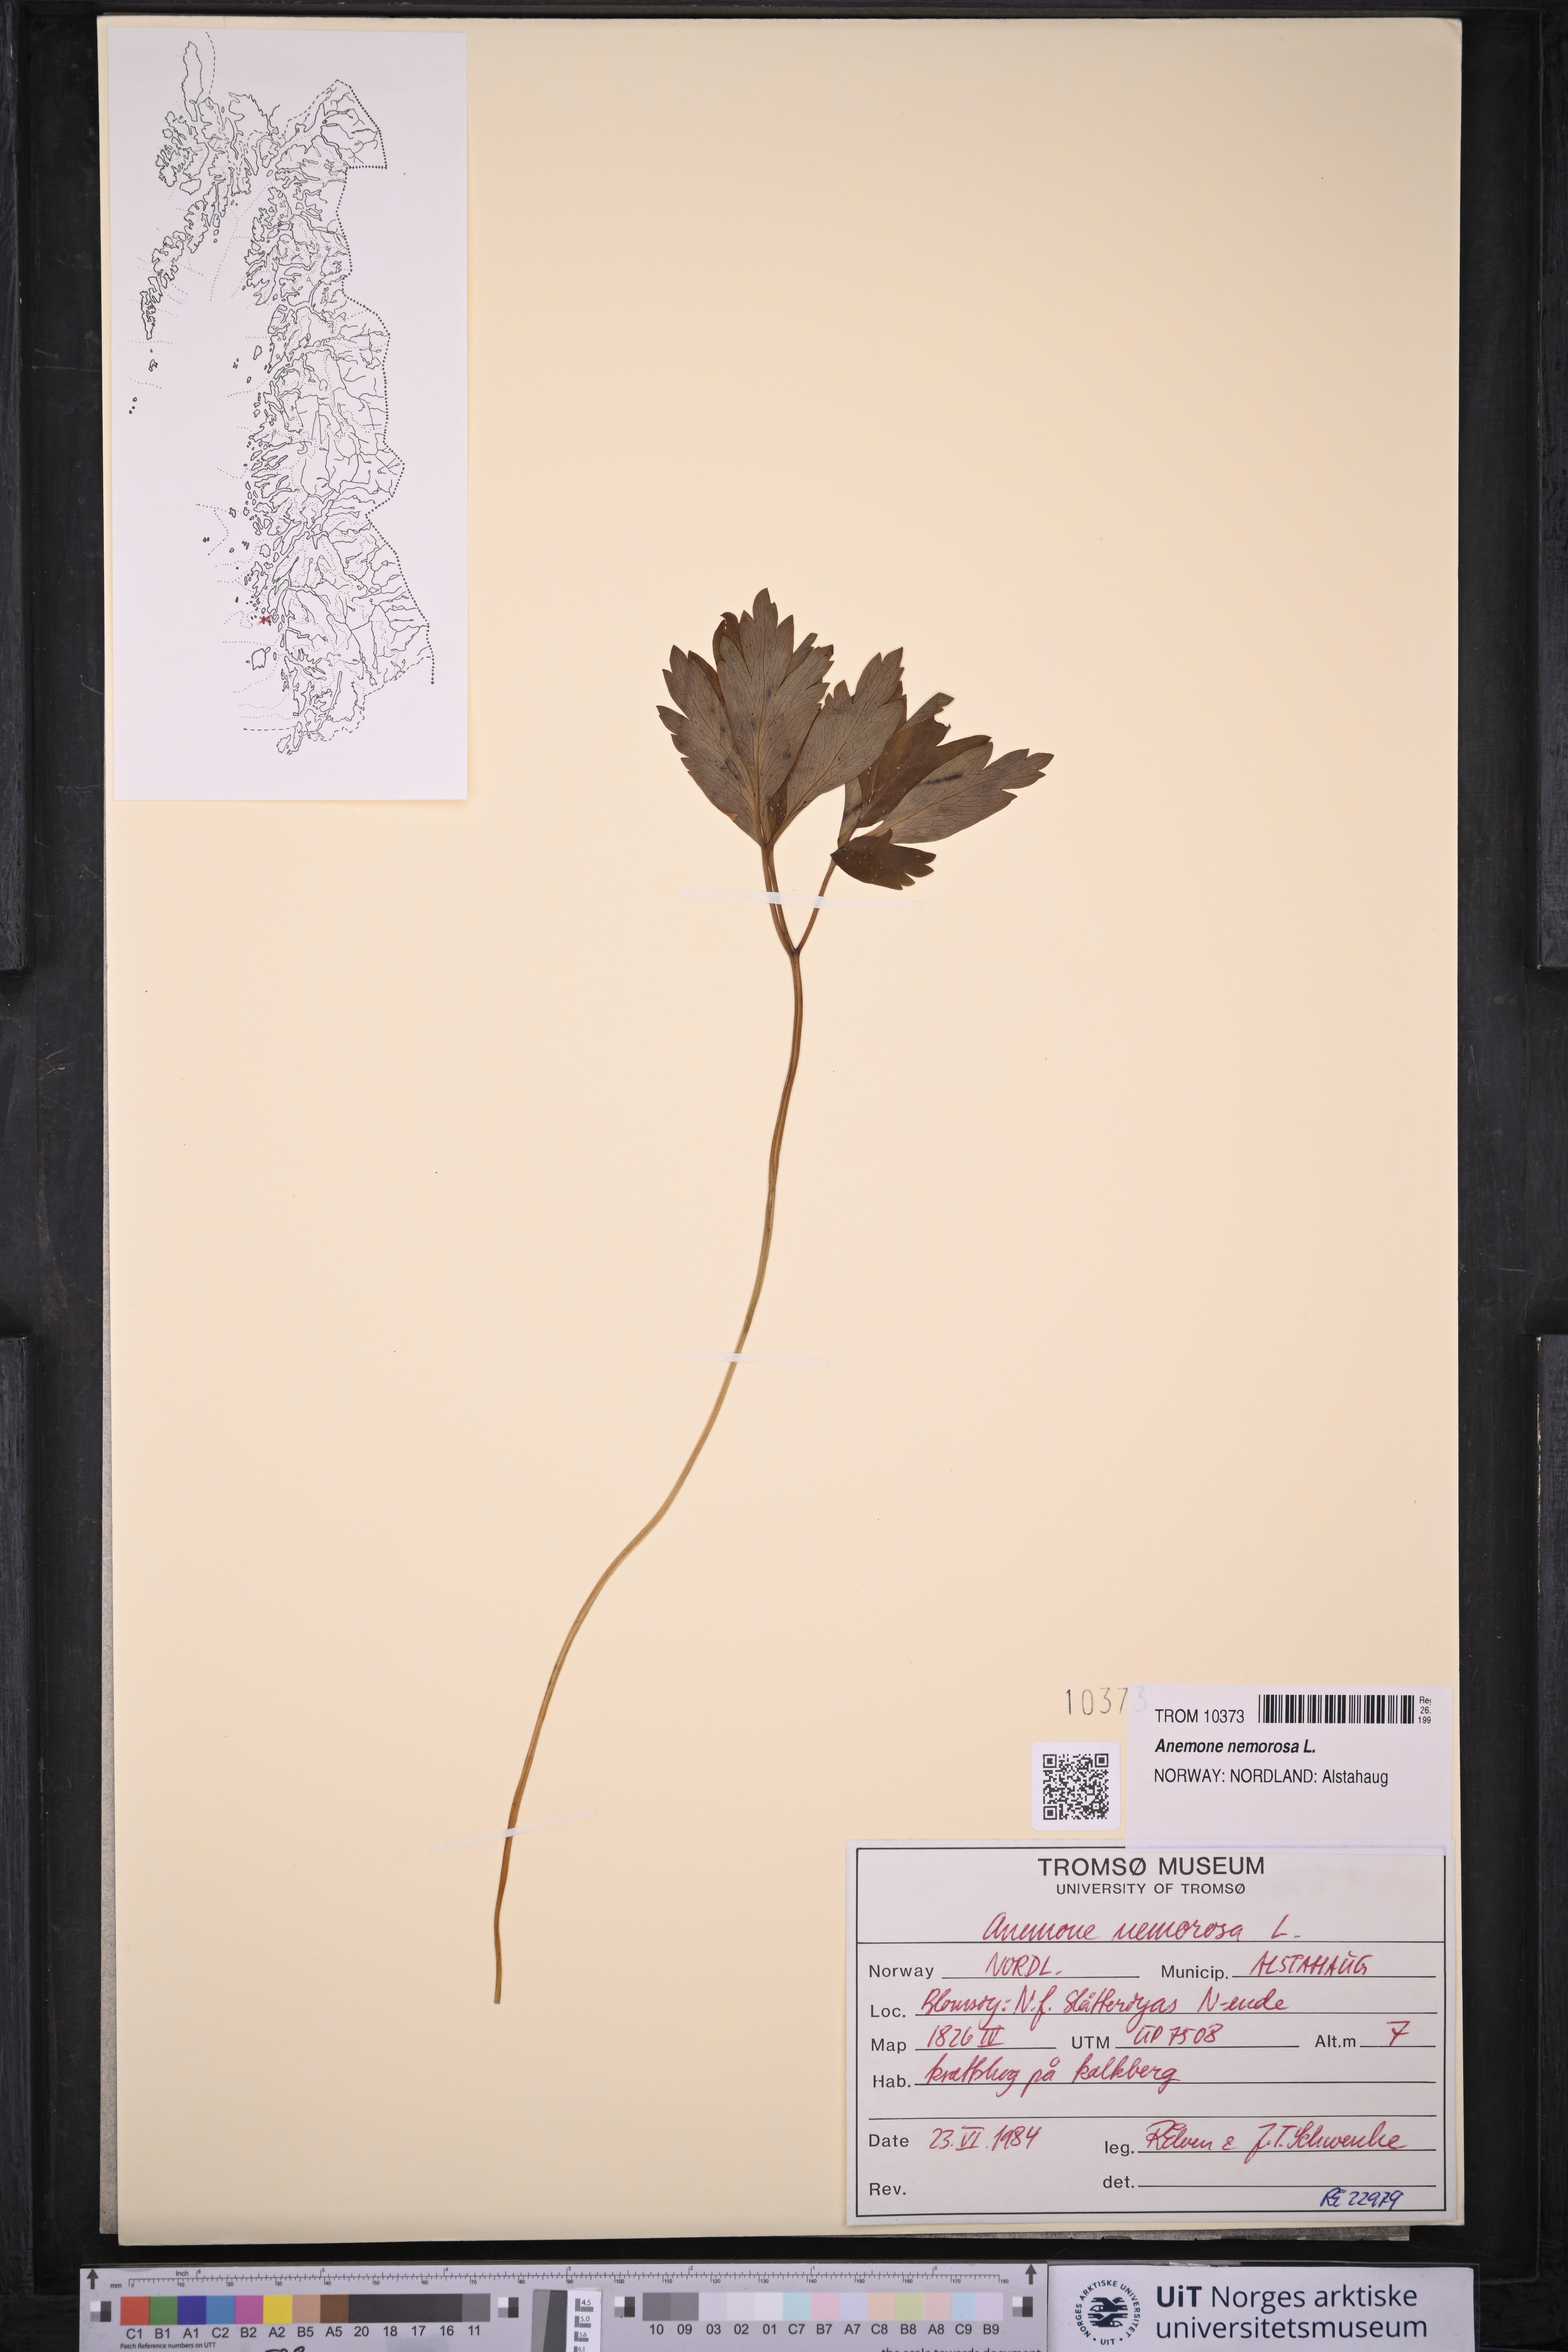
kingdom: Plantae
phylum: Tracheophyta
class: Magnoliopsida
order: Ranunculales
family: Ranunculaceae
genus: Anemone
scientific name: Anemone nemorosa
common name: Wood anemone
